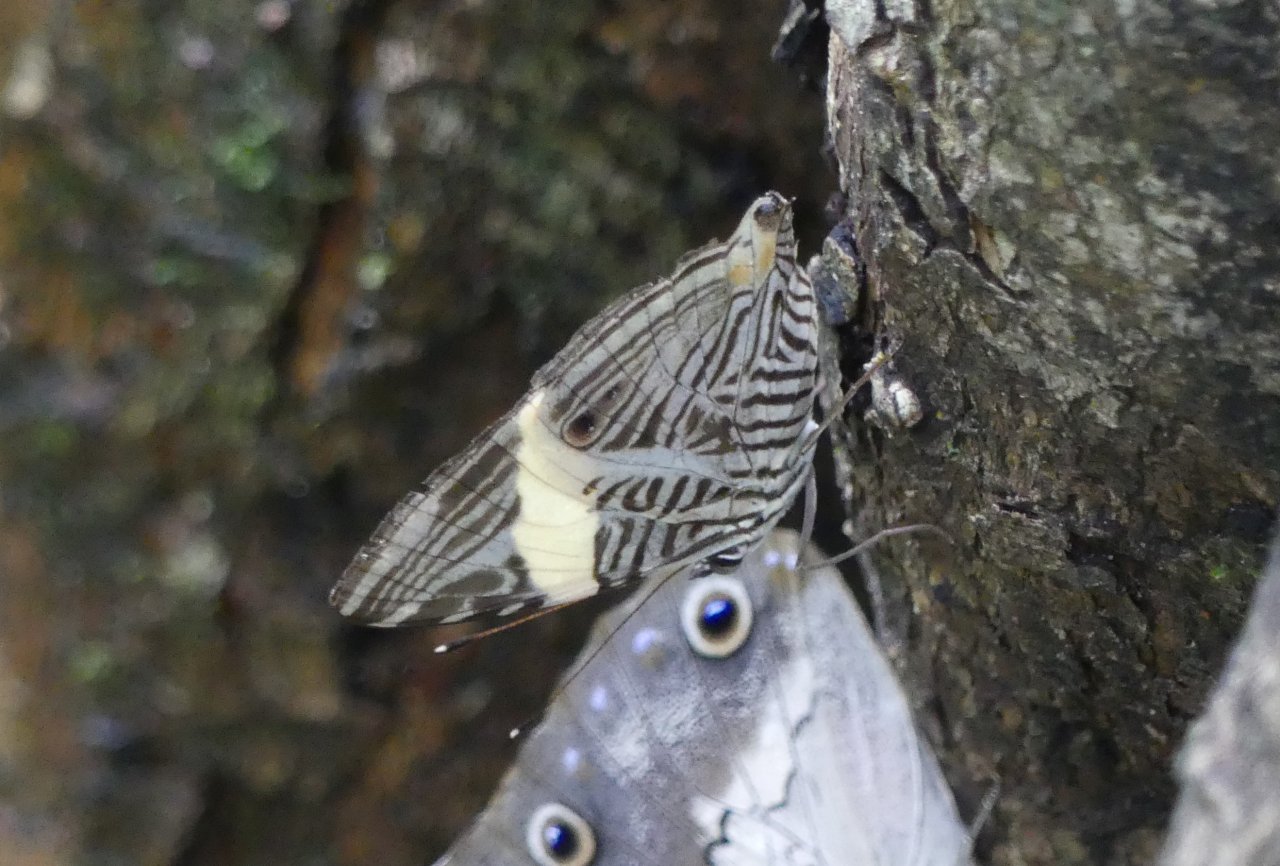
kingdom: Animalia
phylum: Arthropoda
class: Insecta
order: Lepidoptera
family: Nymphalidae
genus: Colobura
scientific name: Colobura annulata
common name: New Beauty
